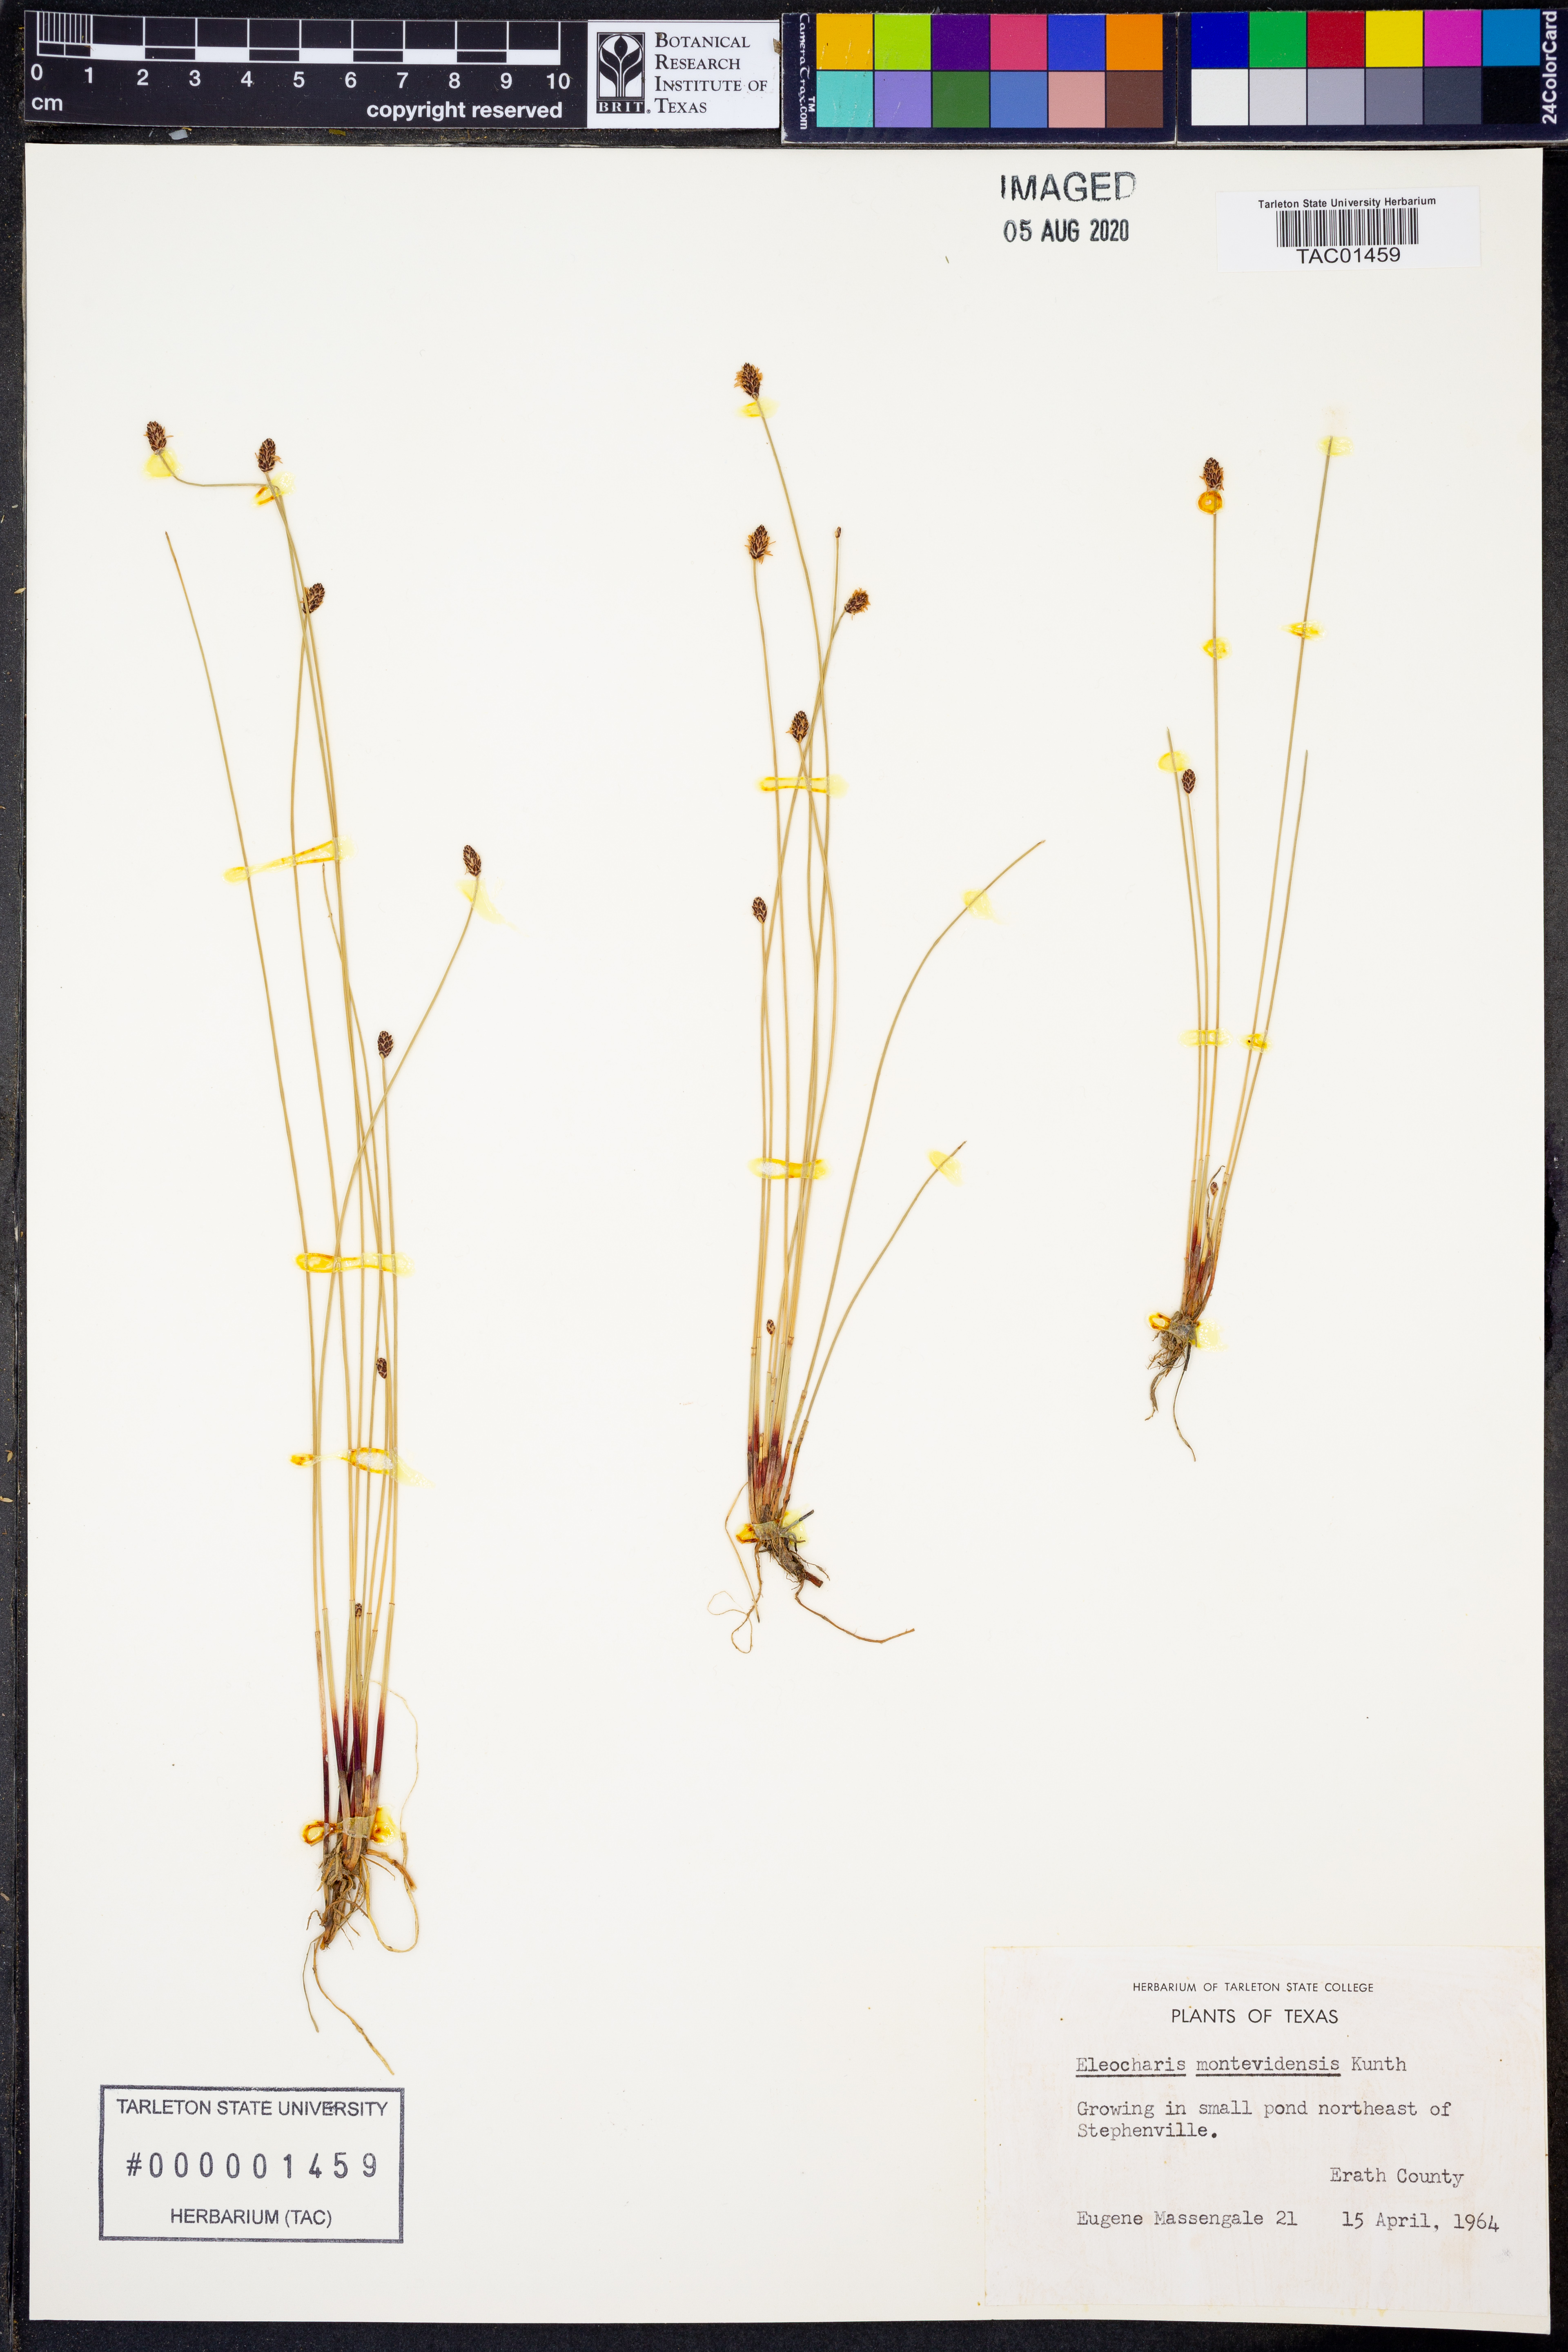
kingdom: Plantae
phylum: Tracheophyta
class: Liliopsida
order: Poales
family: Cyperaceae
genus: Eleocharis
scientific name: Eleocharis montevidensis
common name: Sand spike-rush
